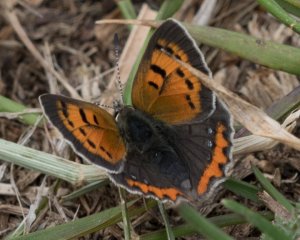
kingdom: Animalia
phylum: Arthropoda
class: Insecta
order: Lepidoptera
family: Lycaenidae
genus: Lycaena
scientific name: Lycaena phlaeas
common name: American Copper
